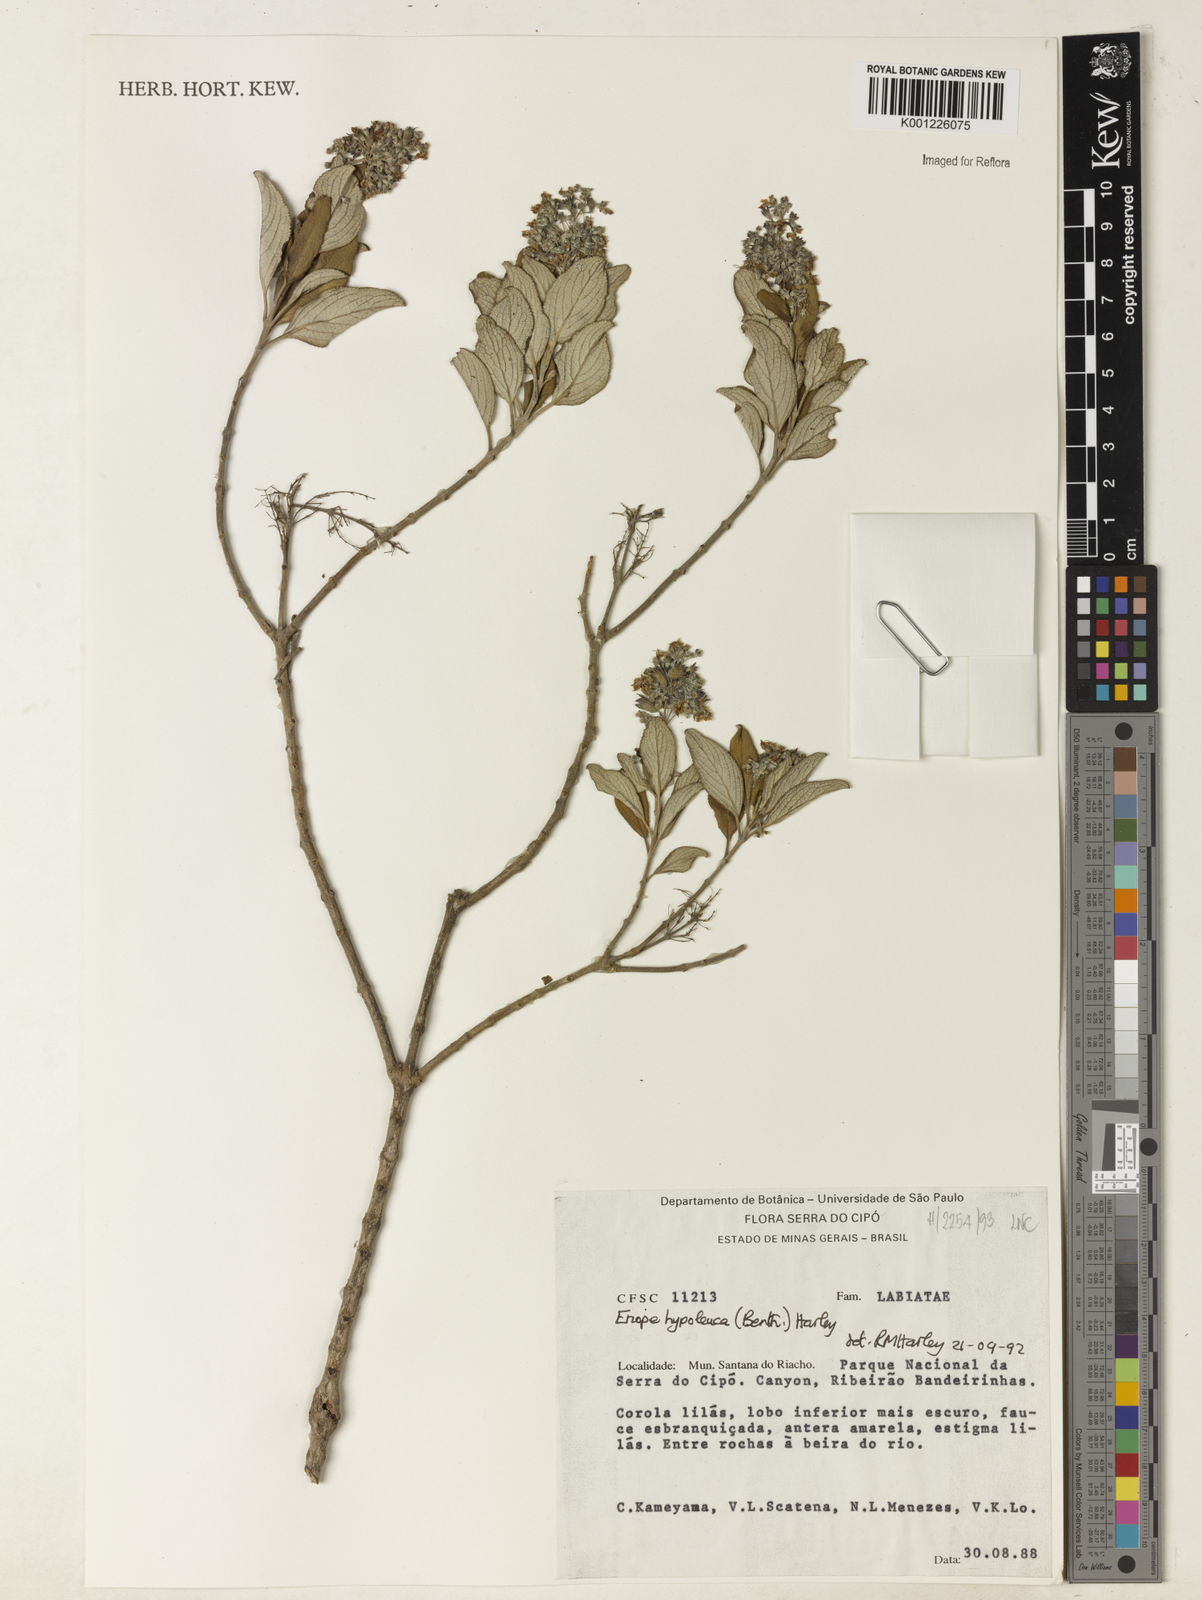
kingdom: Plantae
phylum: Tracheophyta
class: Magnoliopsida
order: Lamiales
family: Lamiaceae
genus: Eriope
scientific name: Eriope hypoleuca
